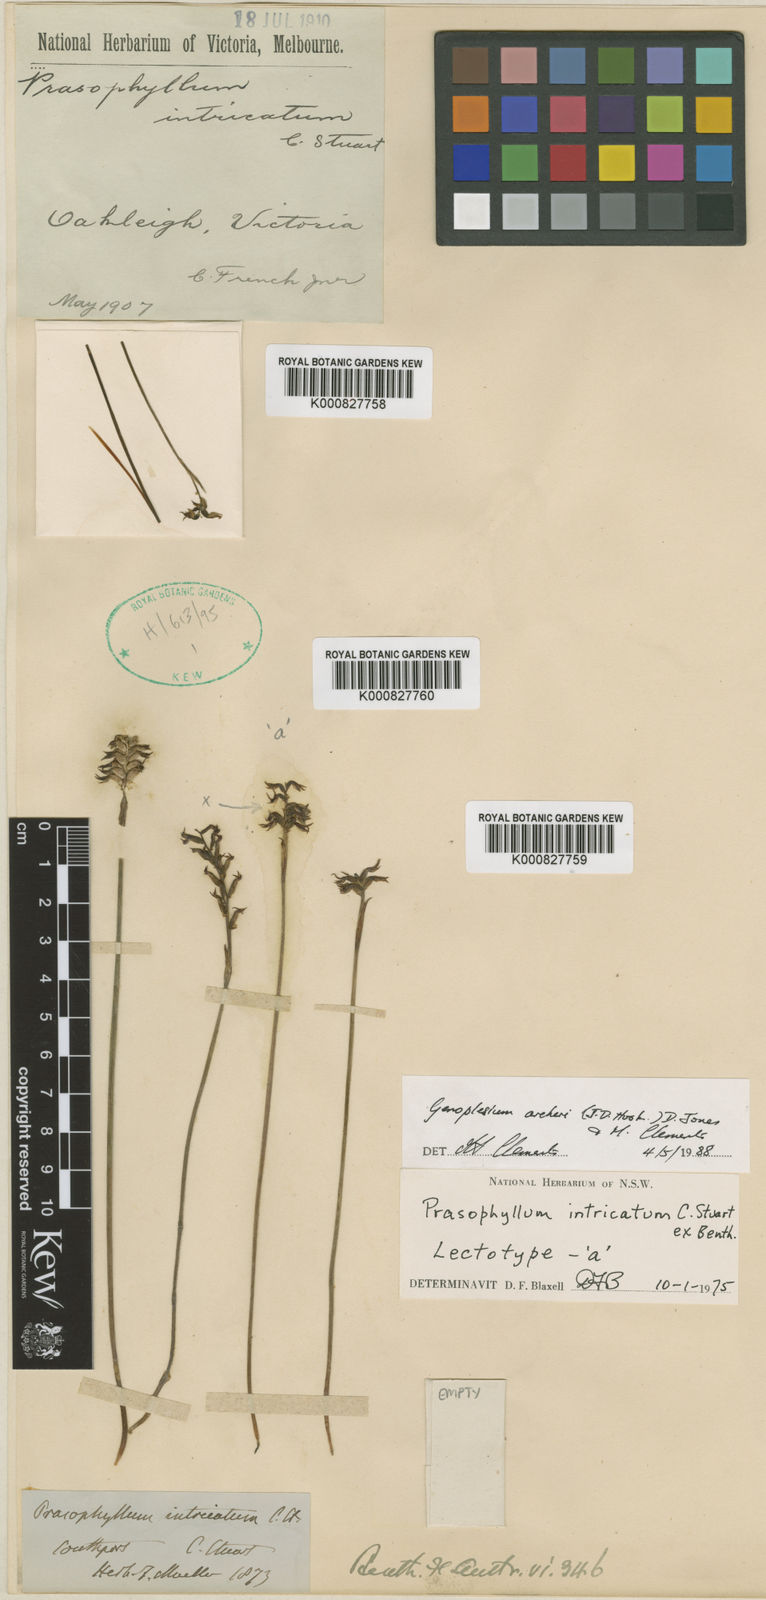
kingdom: Plantae
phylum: Tracheophyta
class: Liliopsida
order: Asparagales
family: Orchidaceae
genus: Genoplesium
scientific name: Genoplesium archeri
